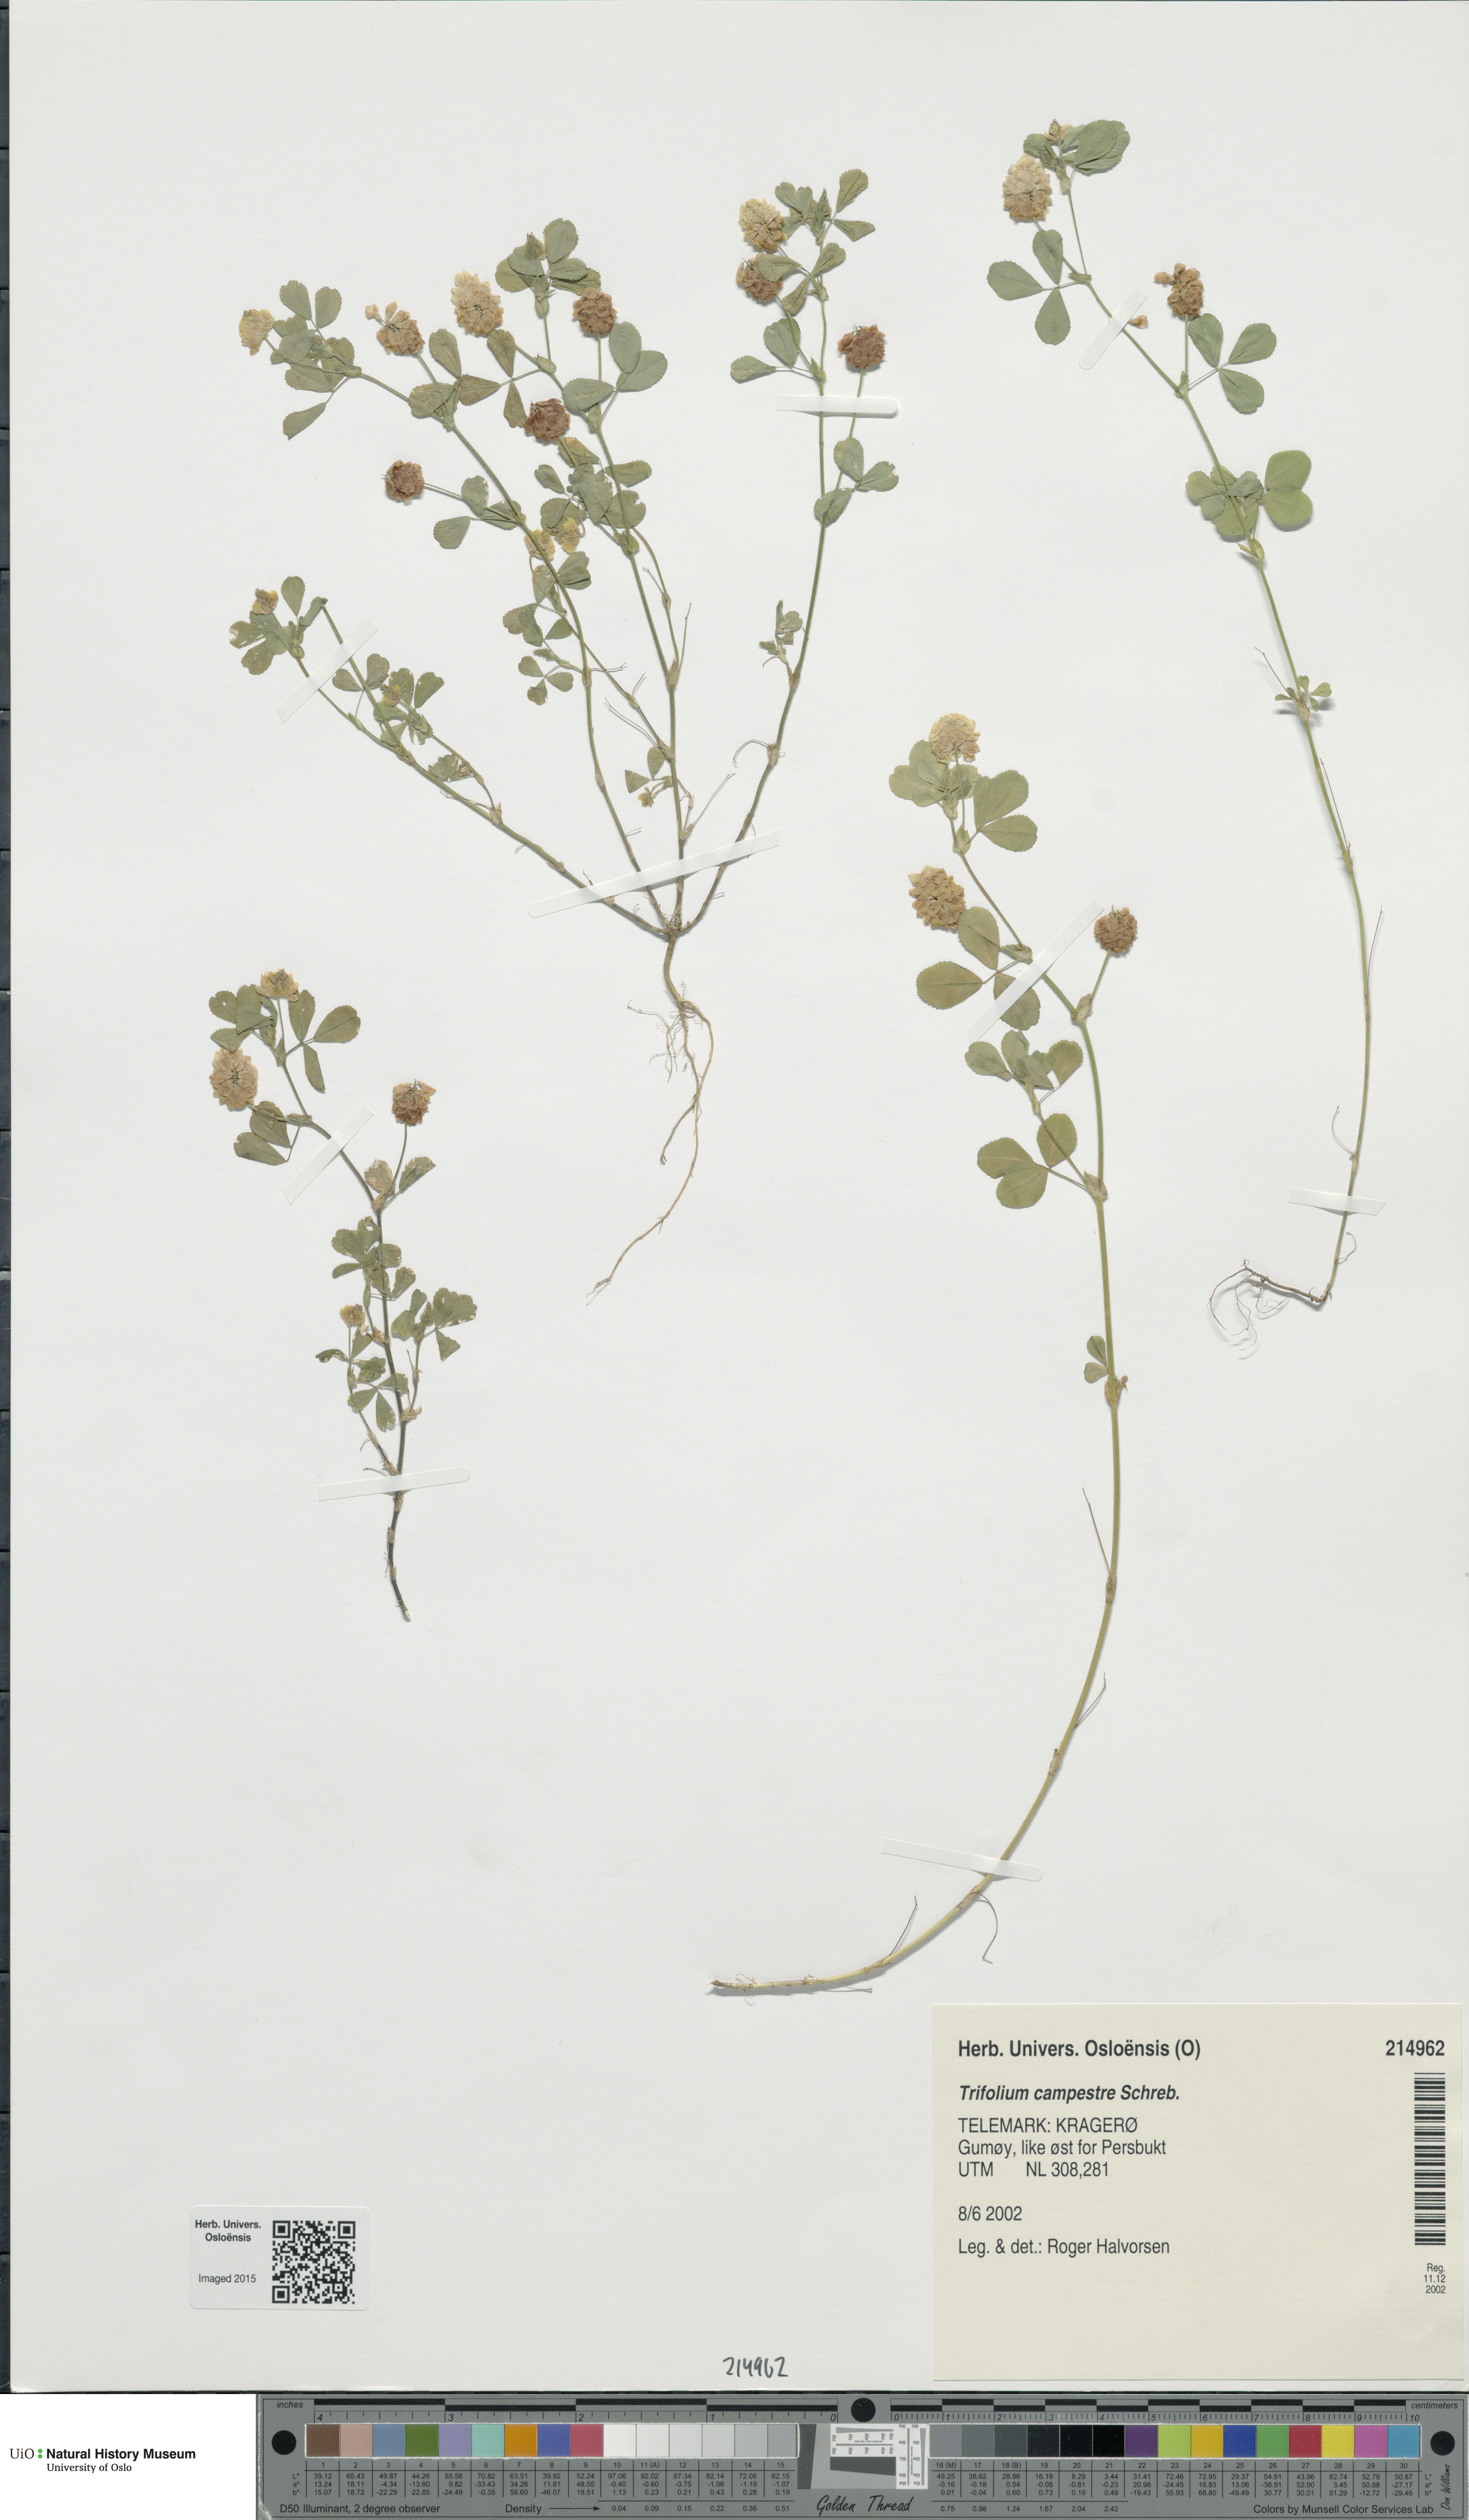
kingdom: Plantae
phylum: Tracheophyta
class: Magnoliopsida
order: Fabales
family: Fabaceae
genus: Trifolium
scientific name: Trifolium campestre
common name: Field clover
